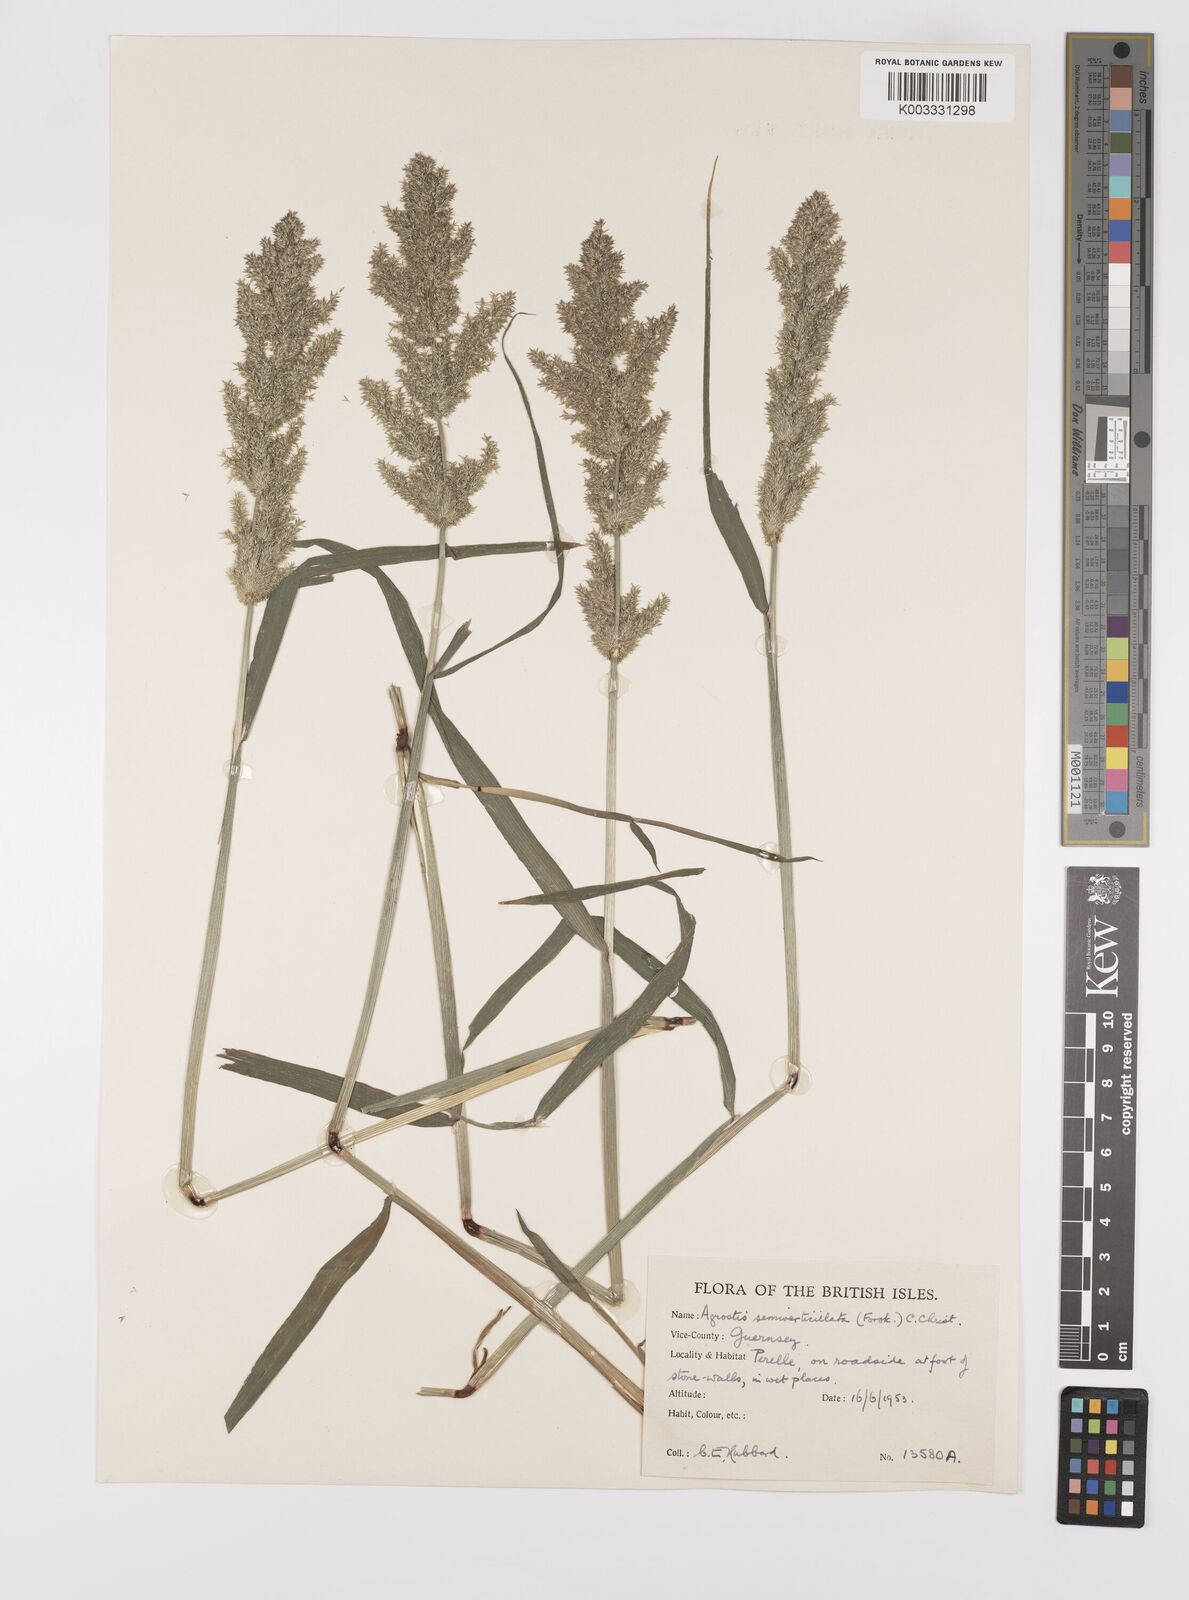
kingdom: Plantae
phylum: Tracheophyta
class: Liliopsida
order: Poales
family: Poaceae
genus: Polypogon
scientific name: Polypogon viridis
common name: Water bent
